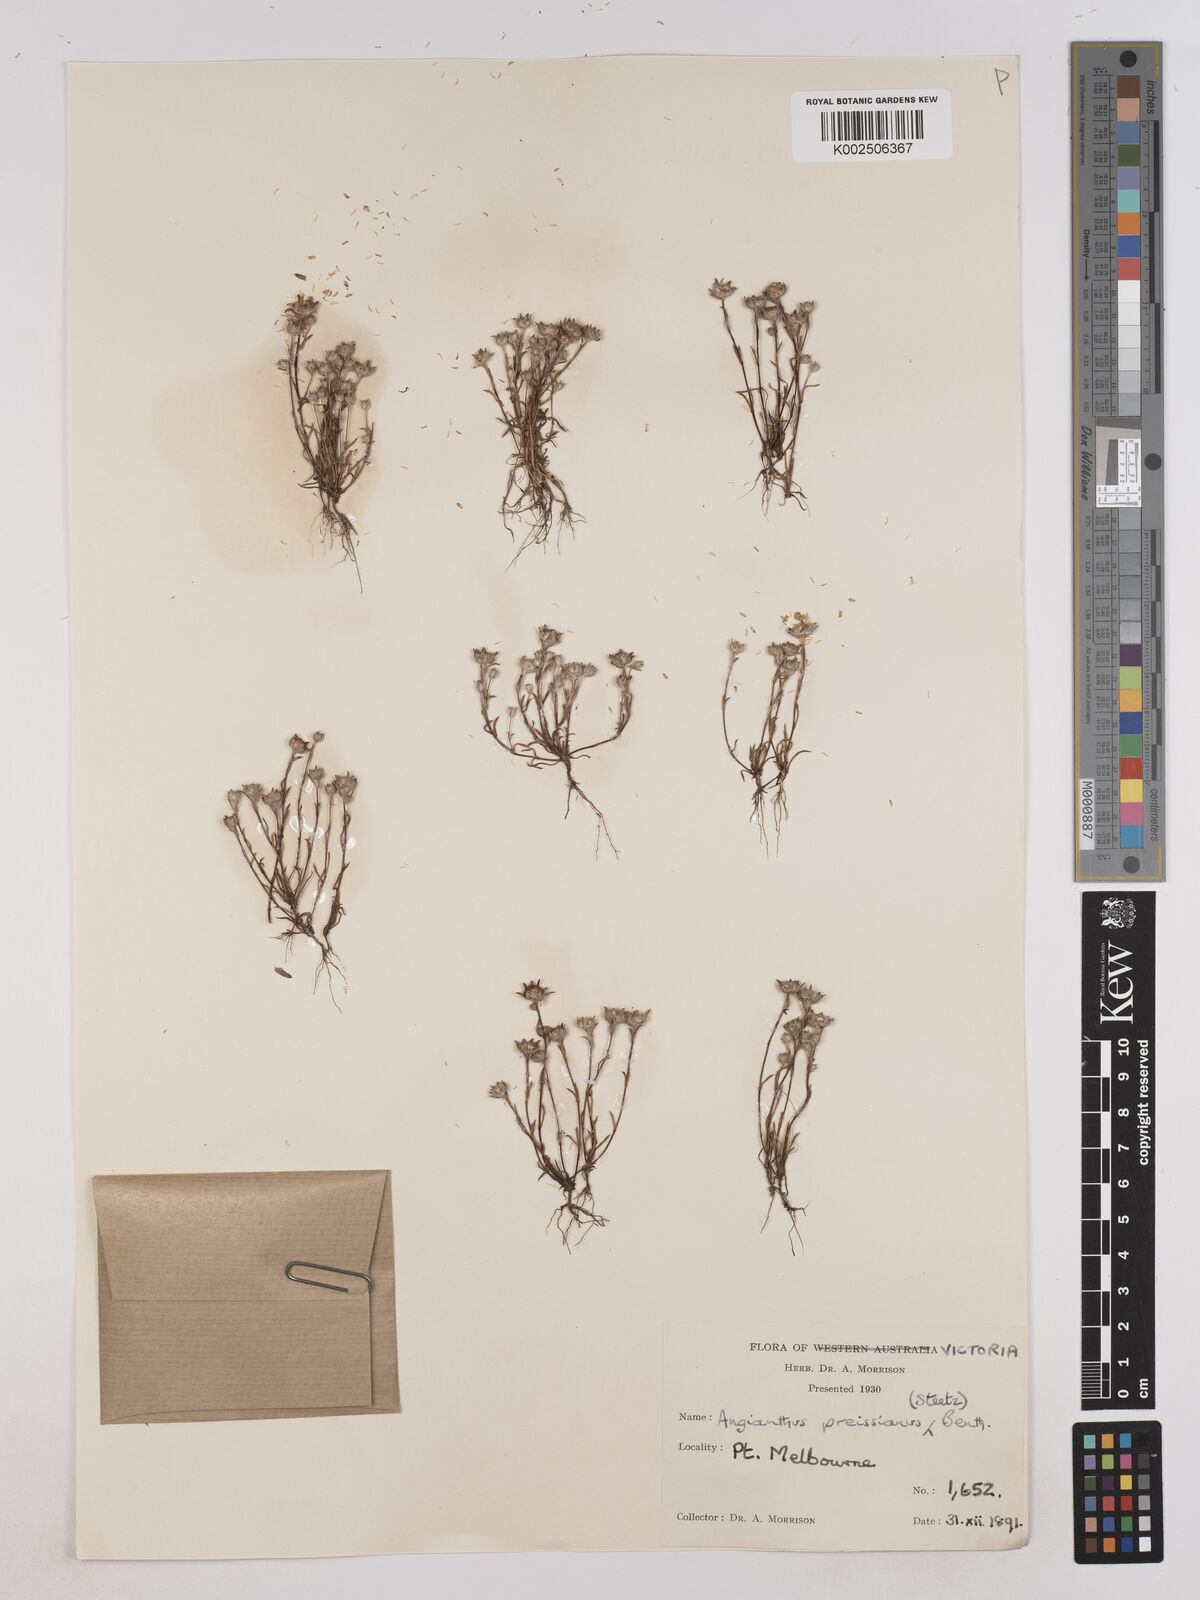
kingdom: Plantae
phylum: Tracheophyta
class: Magnoliopsida
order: Asterales
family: Asteraceae
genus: Angianthus
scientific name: Angianthus preissianus
